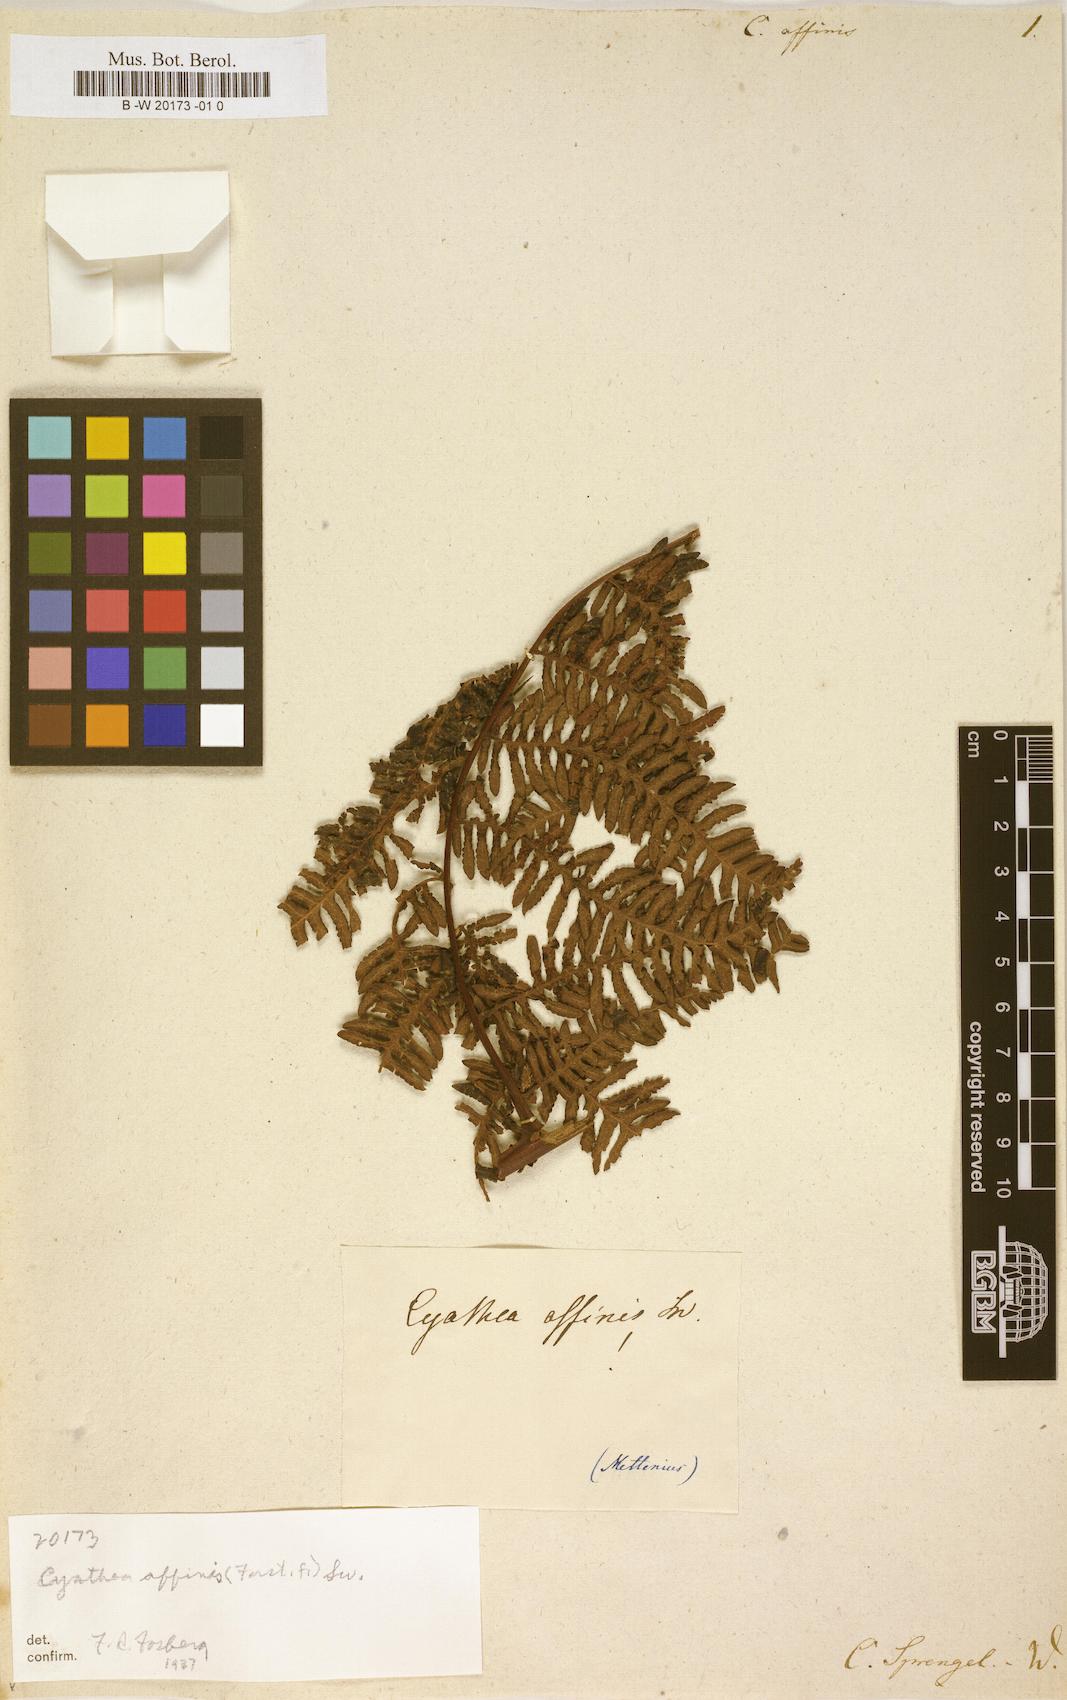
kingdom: Plantae
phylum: Tracheophyta
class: Polypodiopsida
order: Cyatheales
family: Cyatheaceae
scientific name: Cyatheaceae
